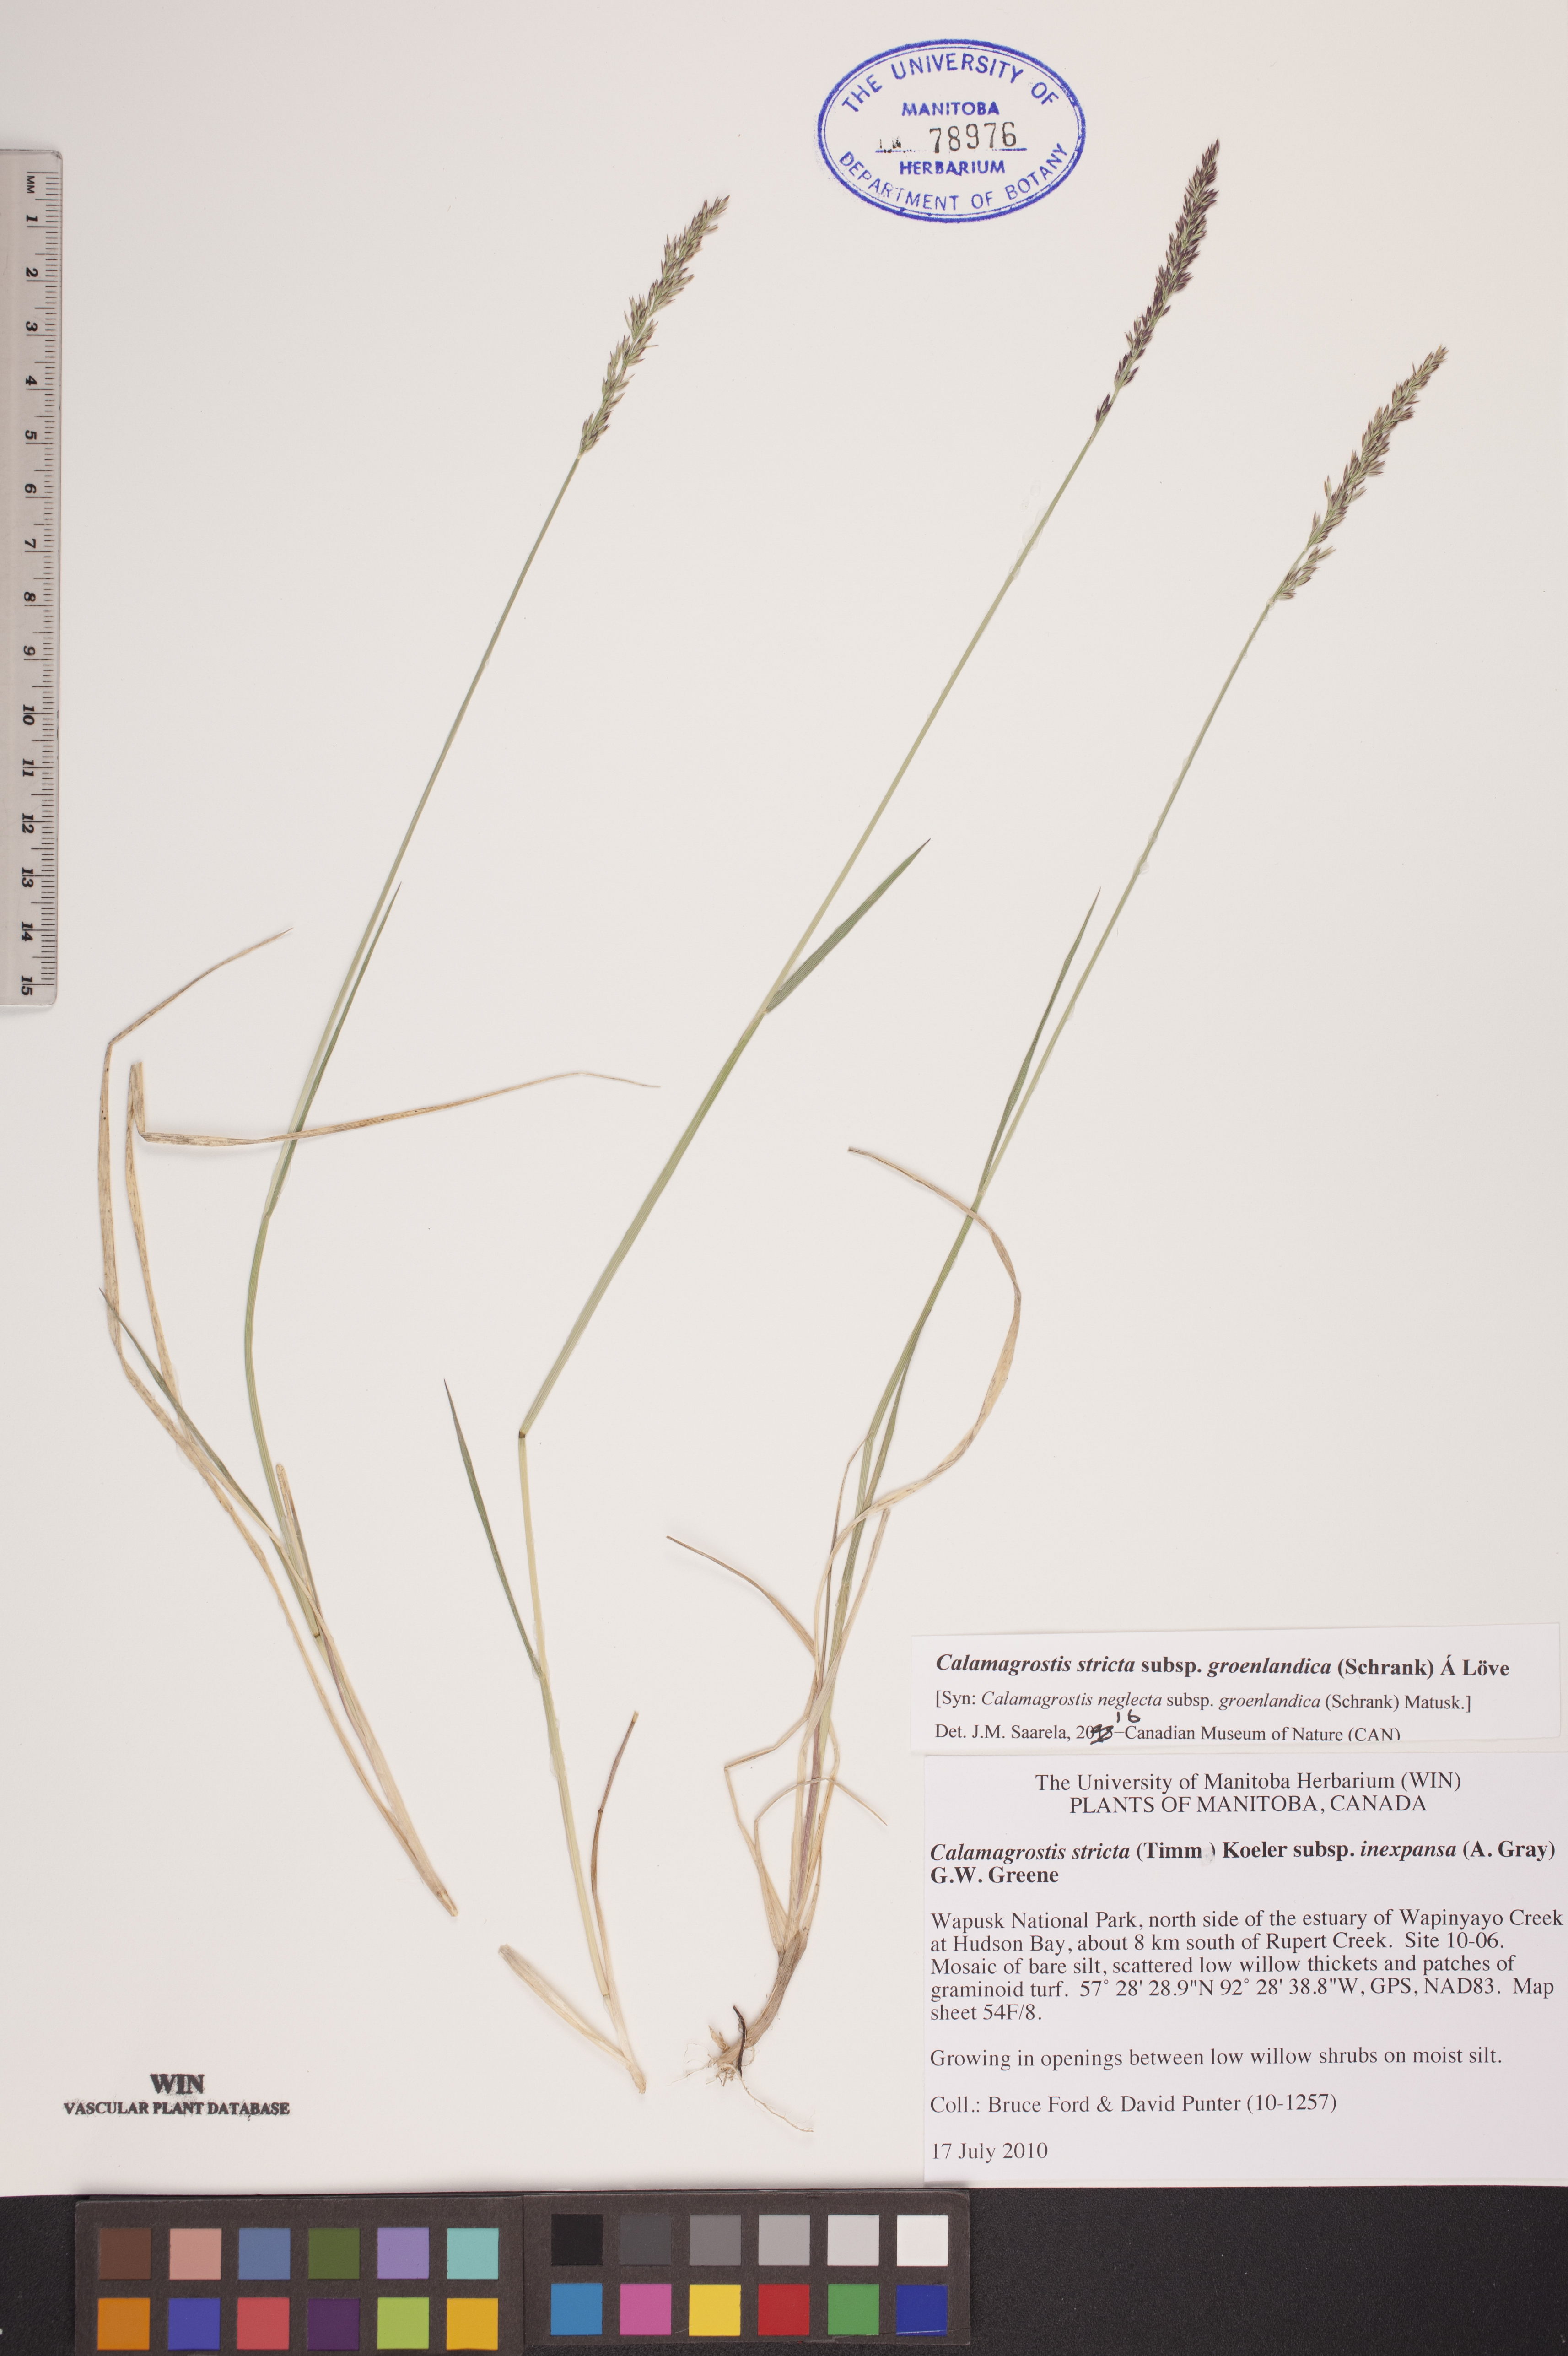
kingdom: Plantae
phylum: Tracheophyta
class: Liliopsida
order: Poales
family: Poaceae
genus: Calamagrostis
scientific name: Calamagrostis stricta
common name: Narrow small-reed
